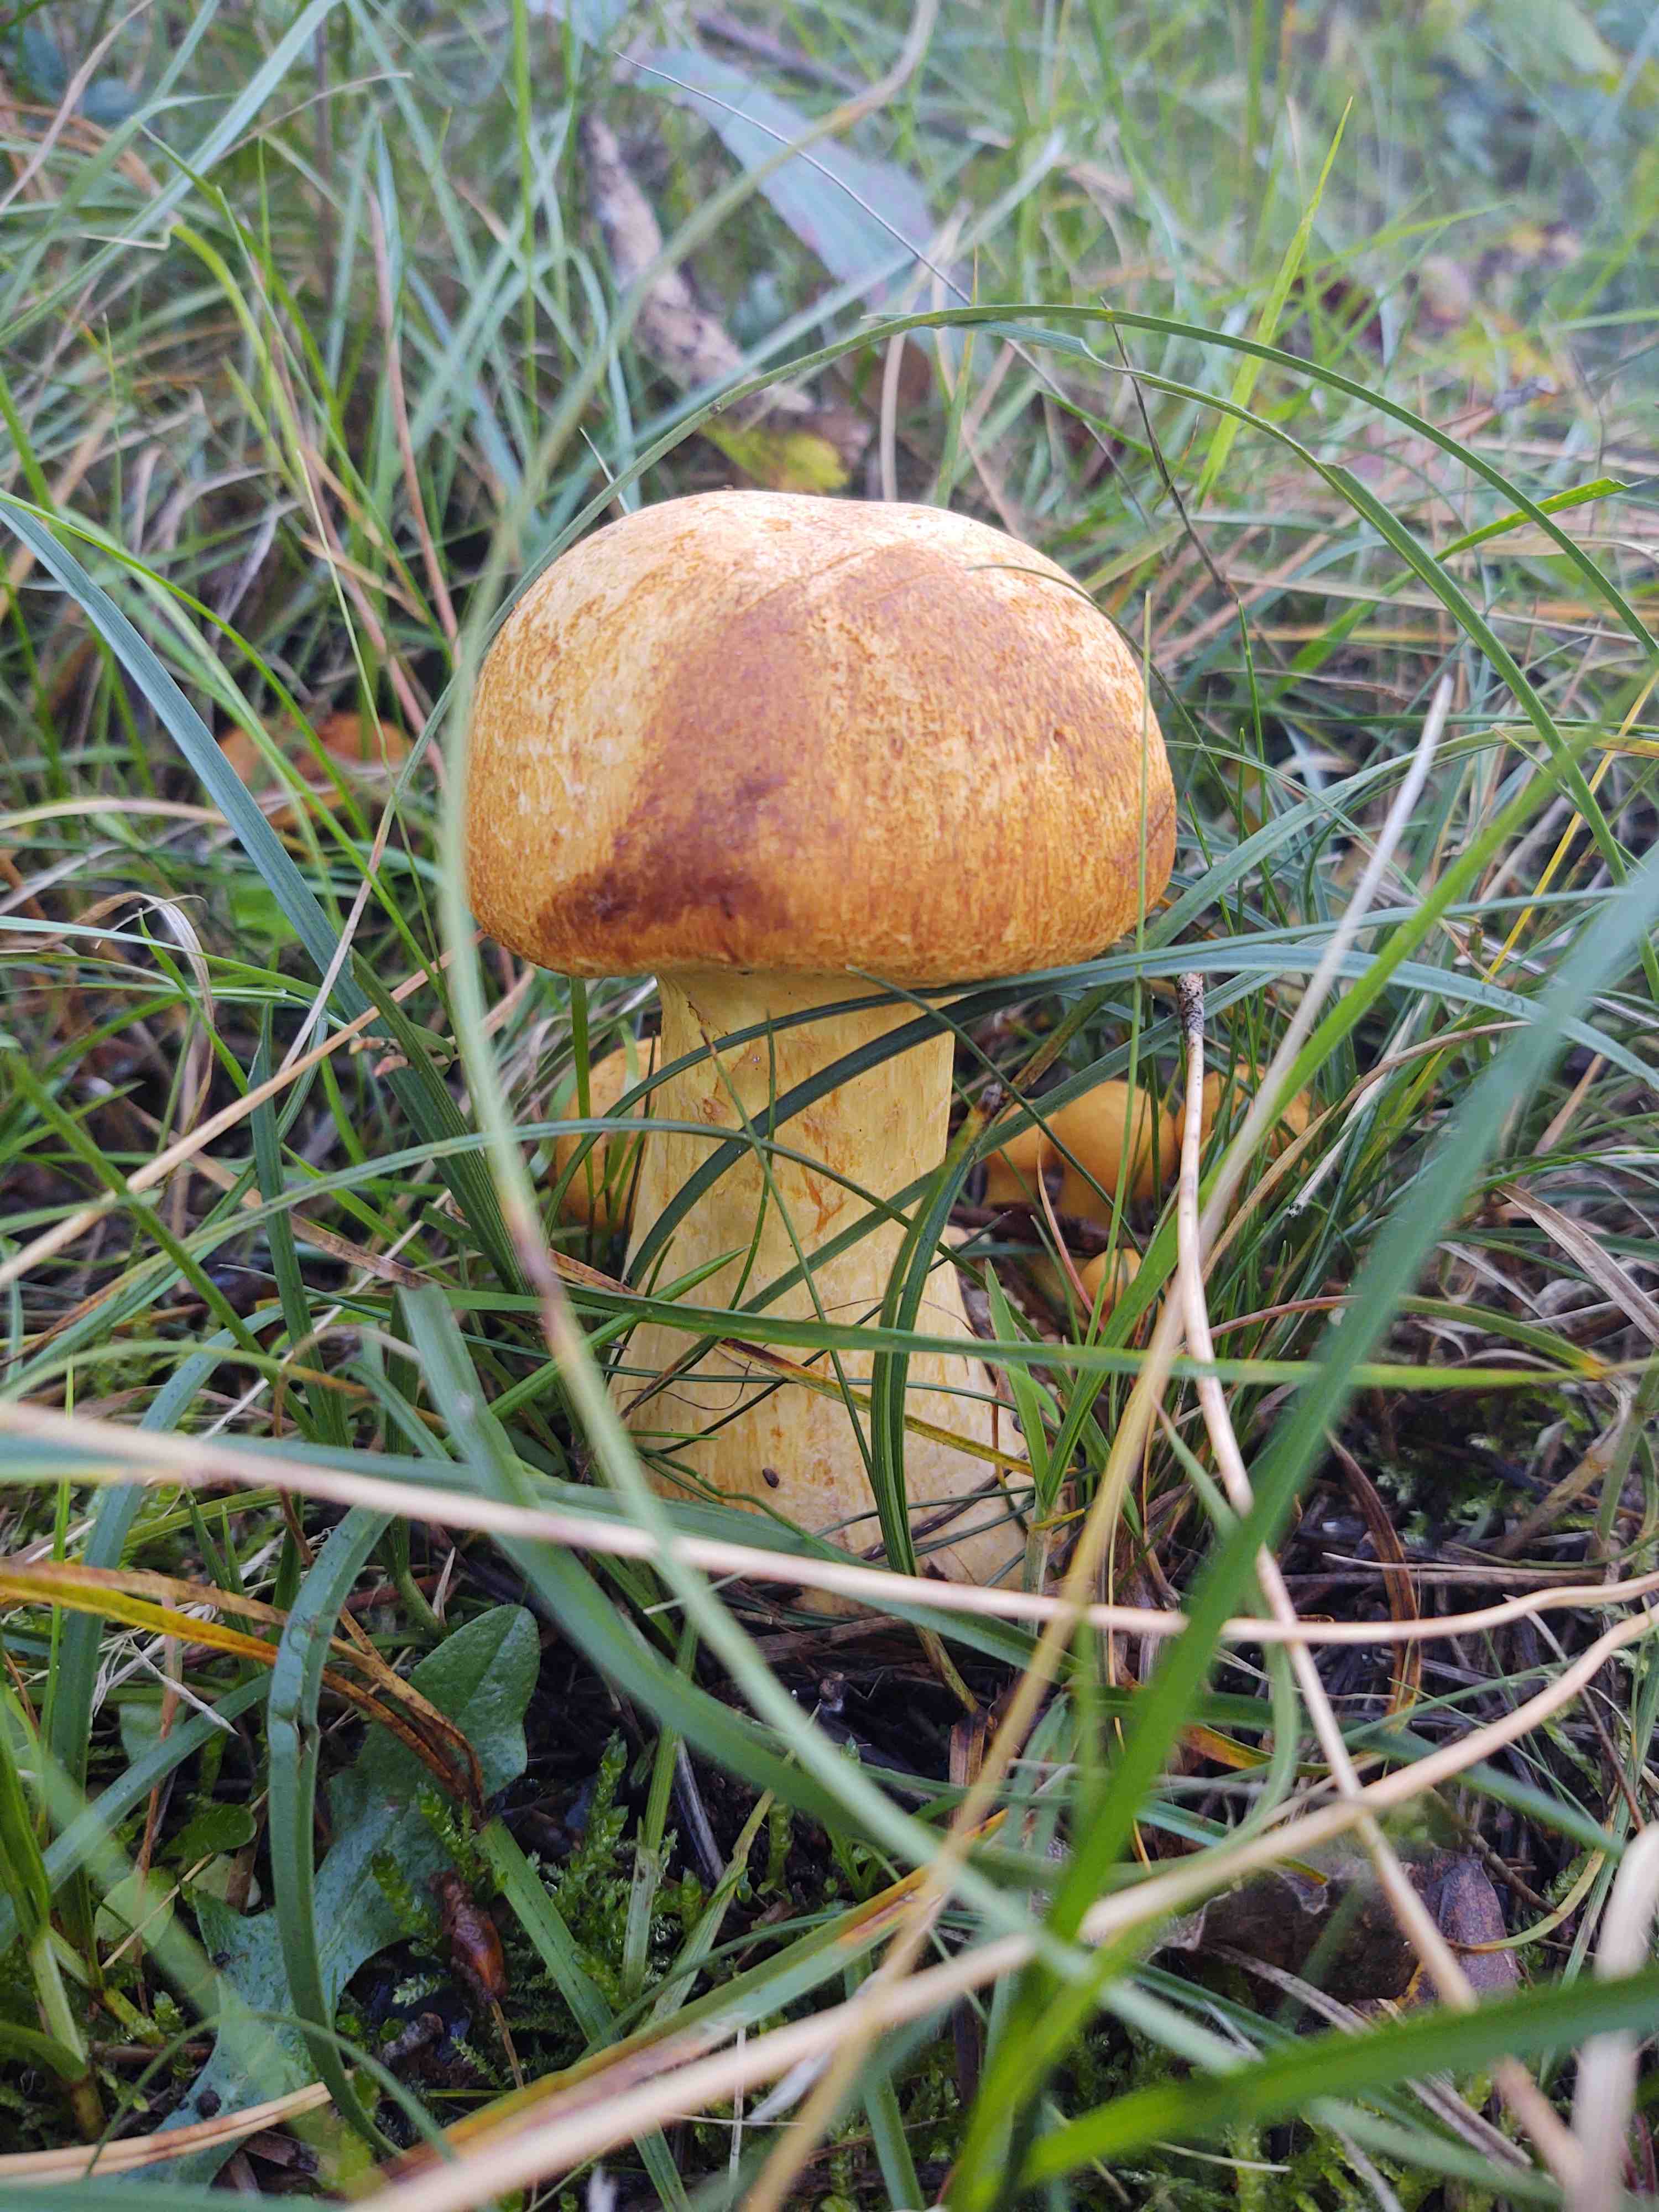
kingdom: Fungi
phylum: Basidiomycota
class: Agaricomycetes
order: Agaricales
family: Hymenogastraceae
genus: Gymnopilus
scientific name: Gymnopilus spectabilis
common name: fibret flammehat
